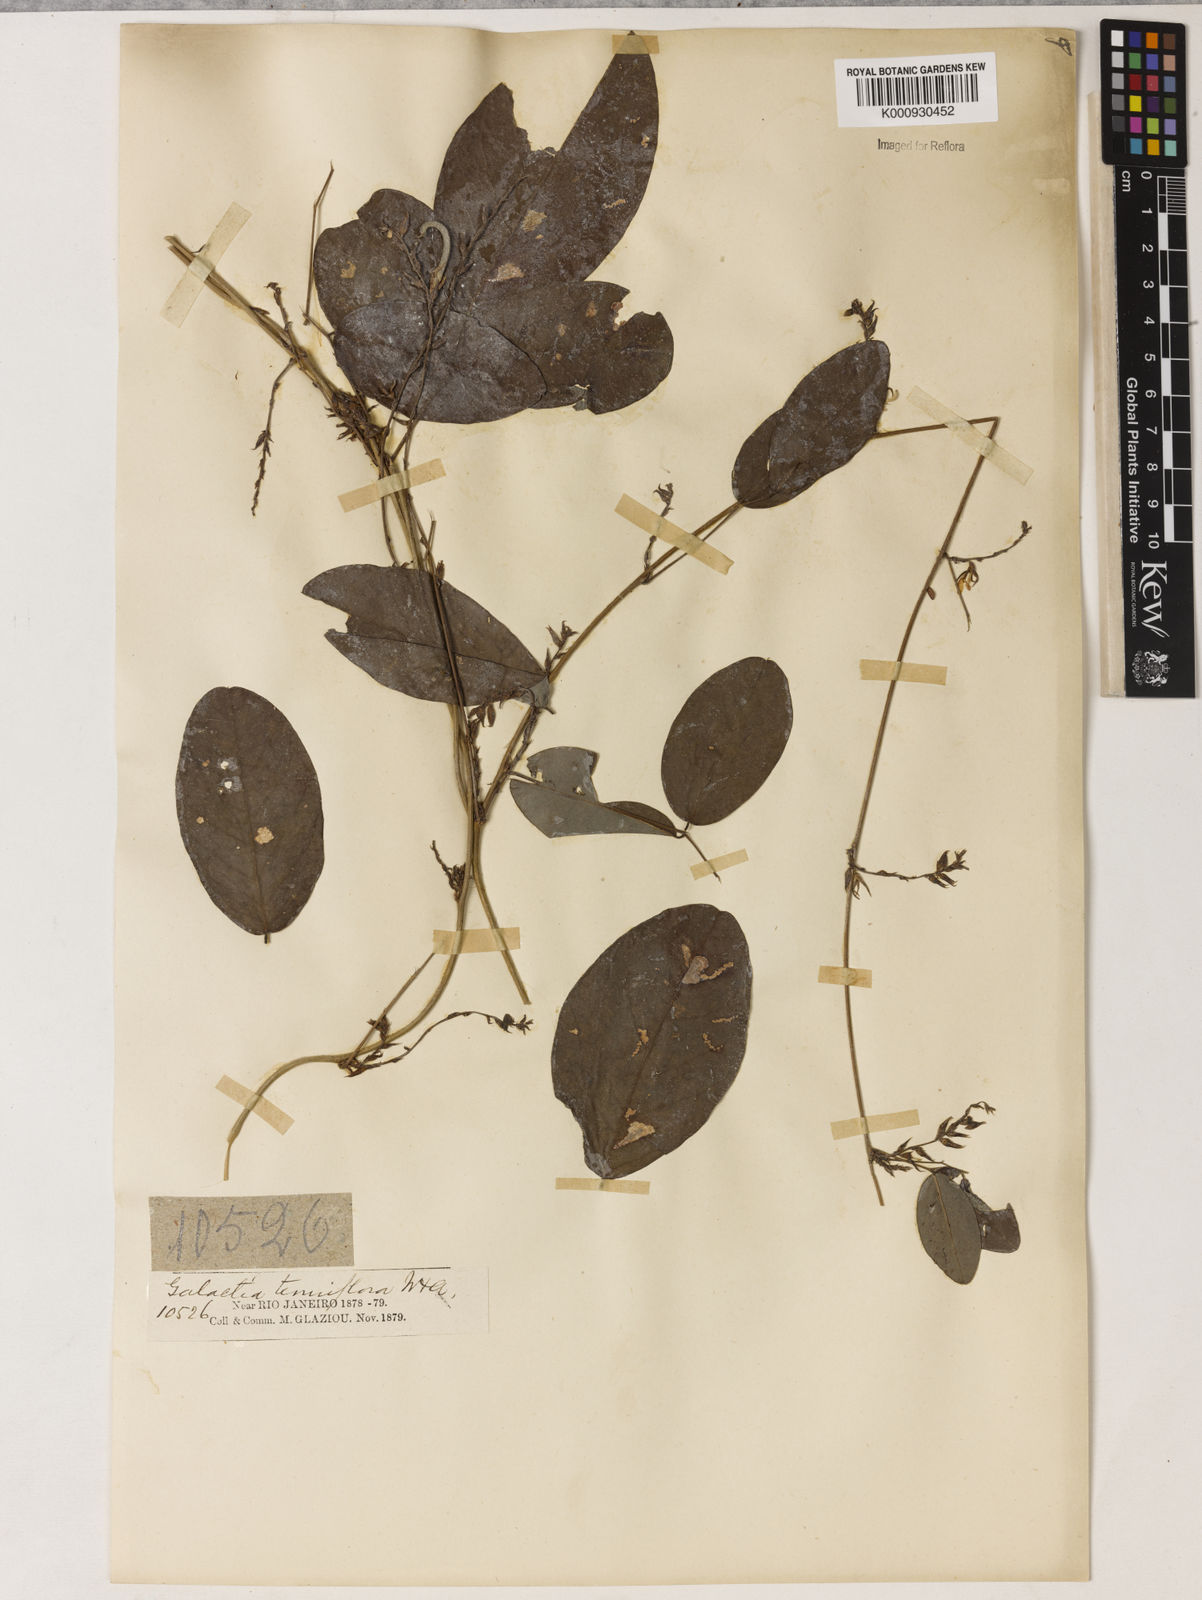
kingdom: Plantae
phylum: Tracheophyta
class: Magnoliopsida
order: Fabales
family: Fabaceae
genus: Galactia
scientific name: Galactia striata
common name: Florida hammock milkpea
